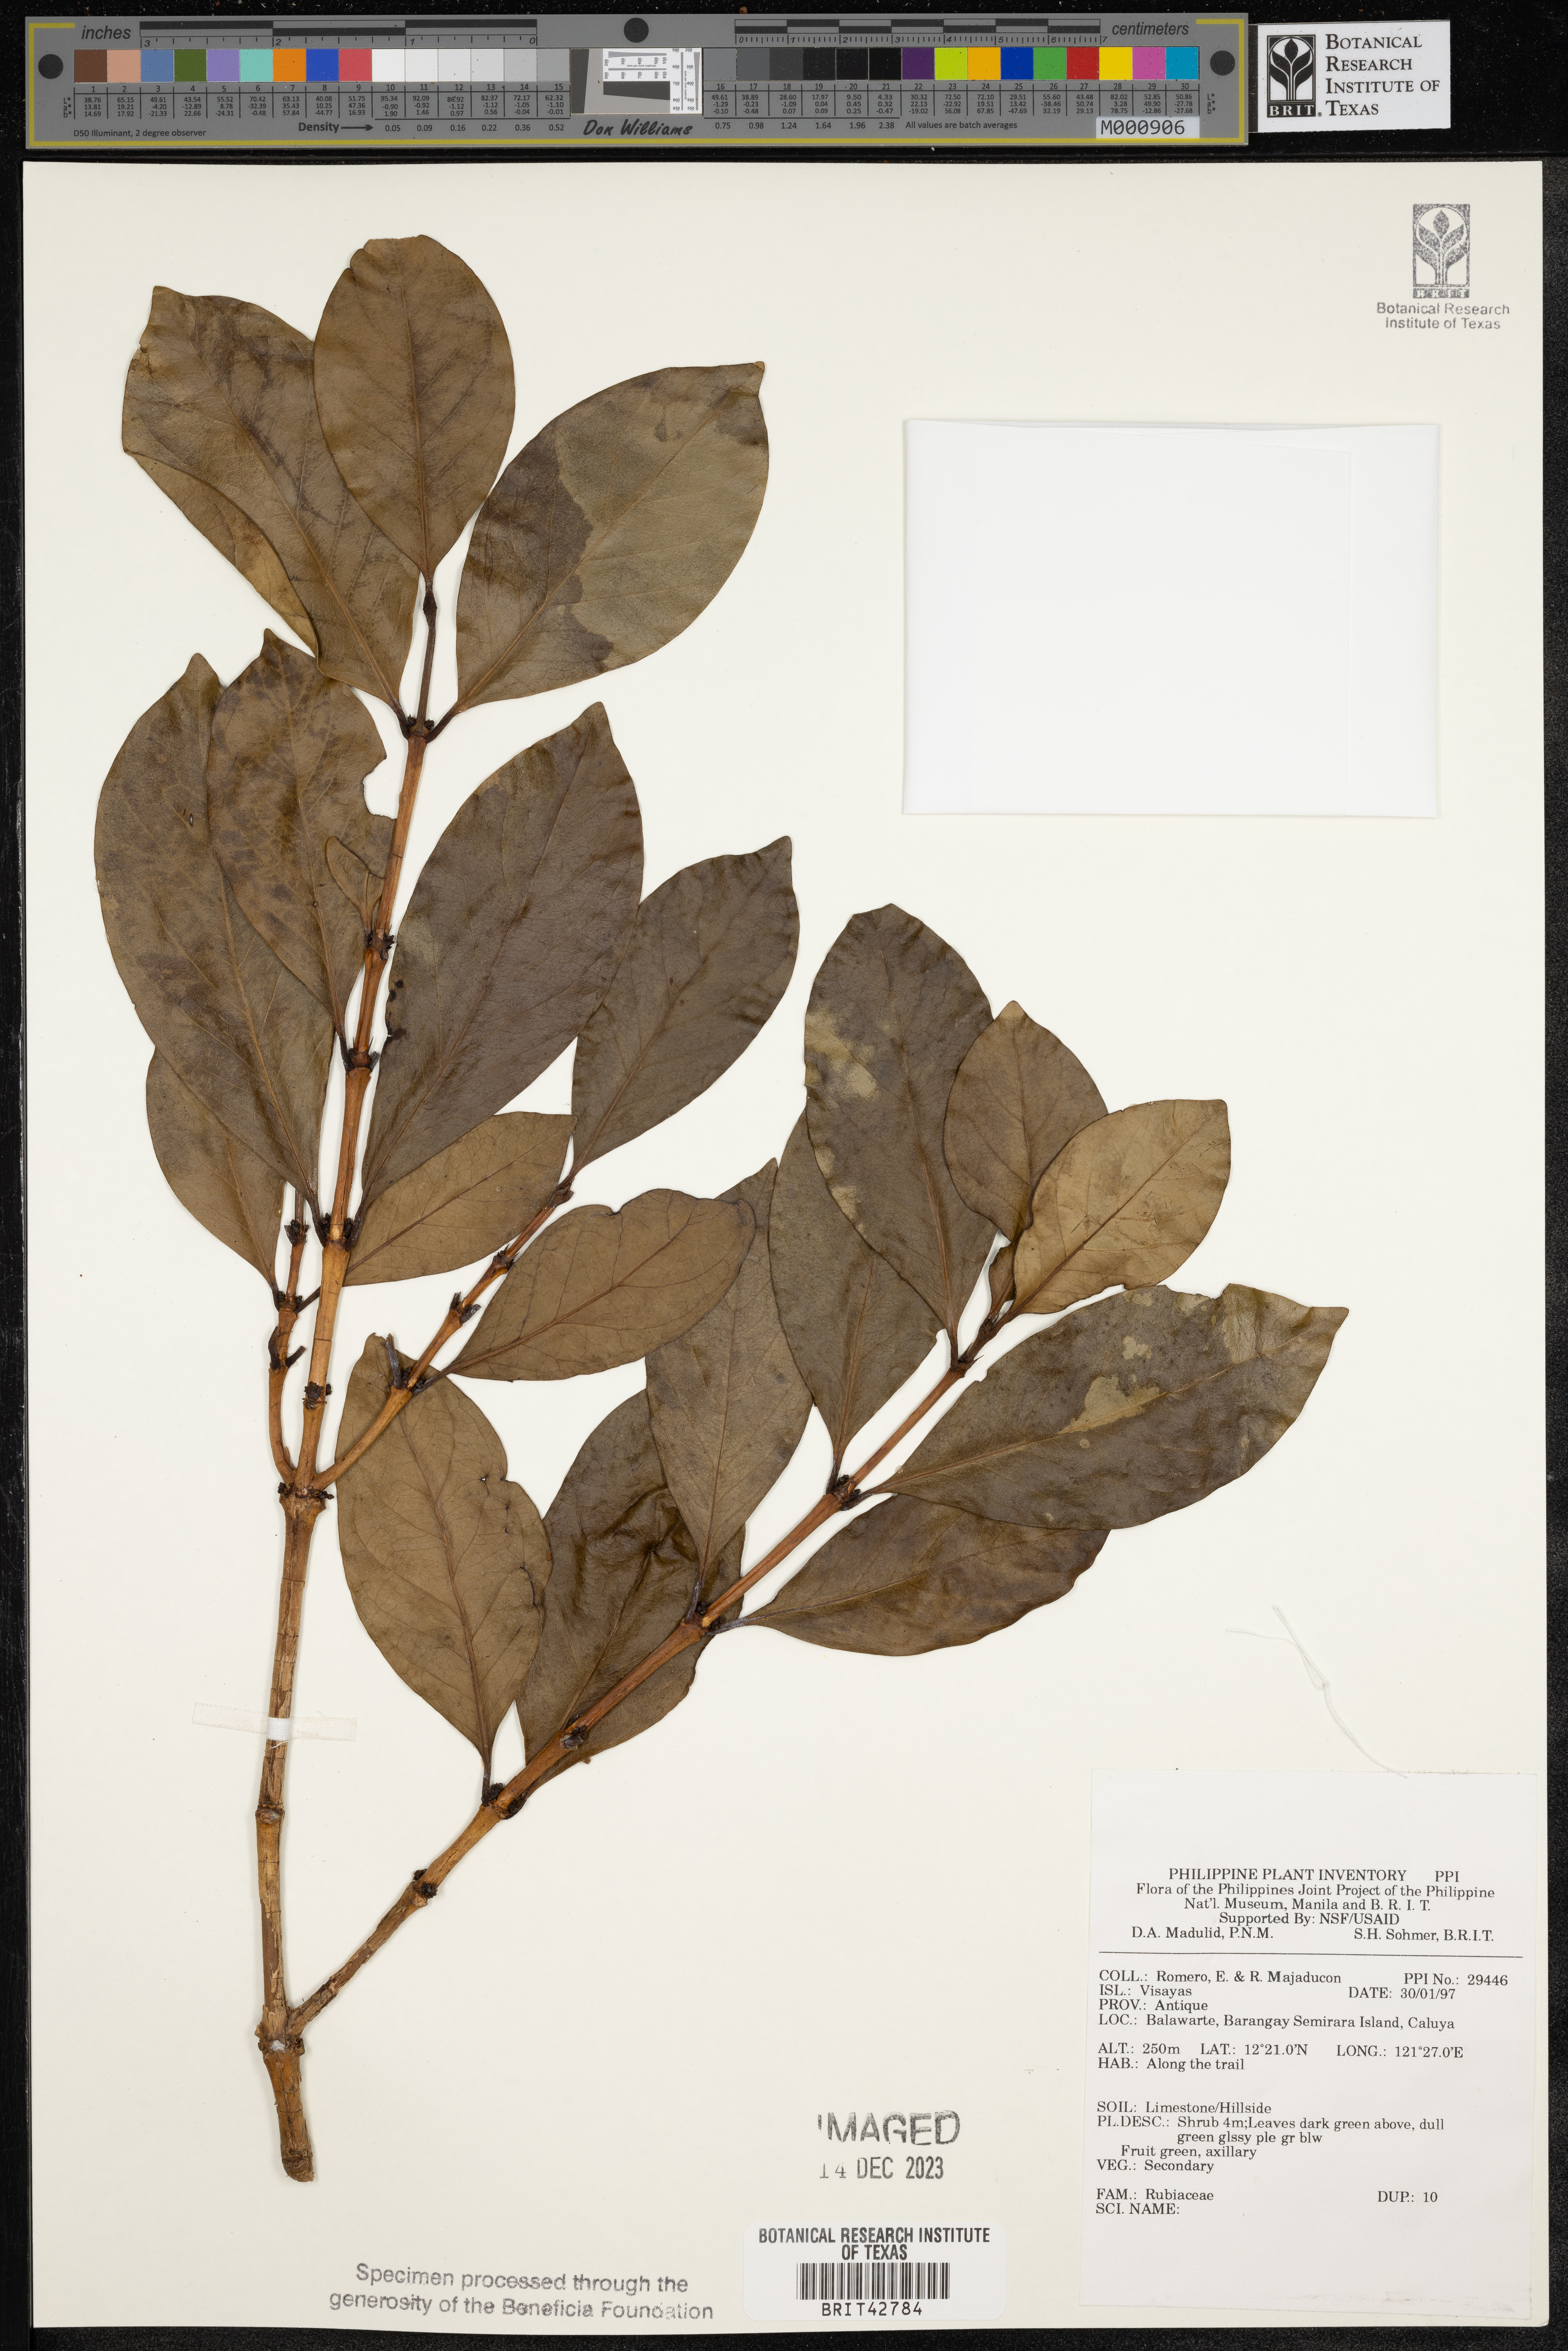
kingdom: Plantae
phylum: Tracheophyta
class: Magnoliopsida
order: Gentianales
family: Rubiaceae
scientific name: Rubiaceae
